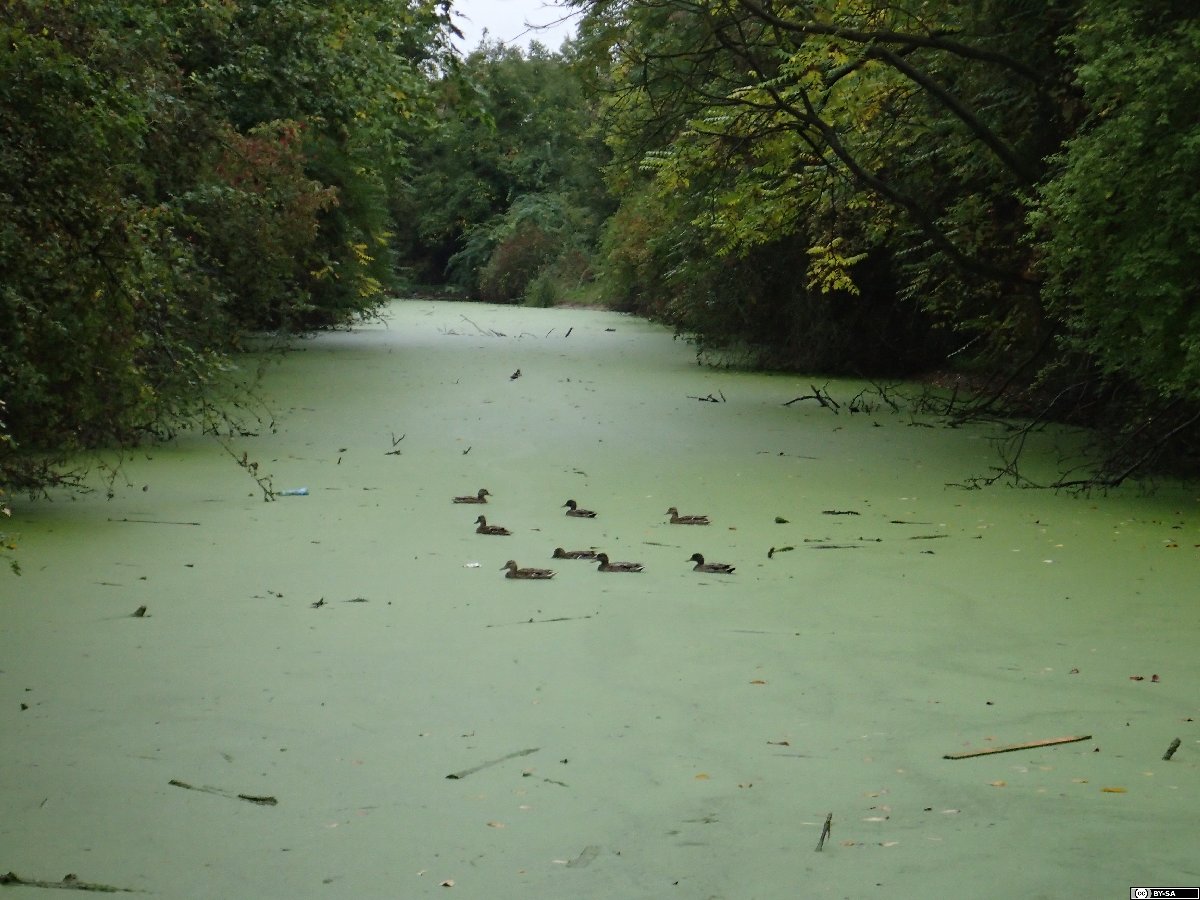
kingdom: Plantae
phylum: Tracheophyta
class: Liliopsida
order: Alismatales
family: Araceae
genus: Wolffia
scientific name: Wolffia columbiana
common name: Columbia watermeal
